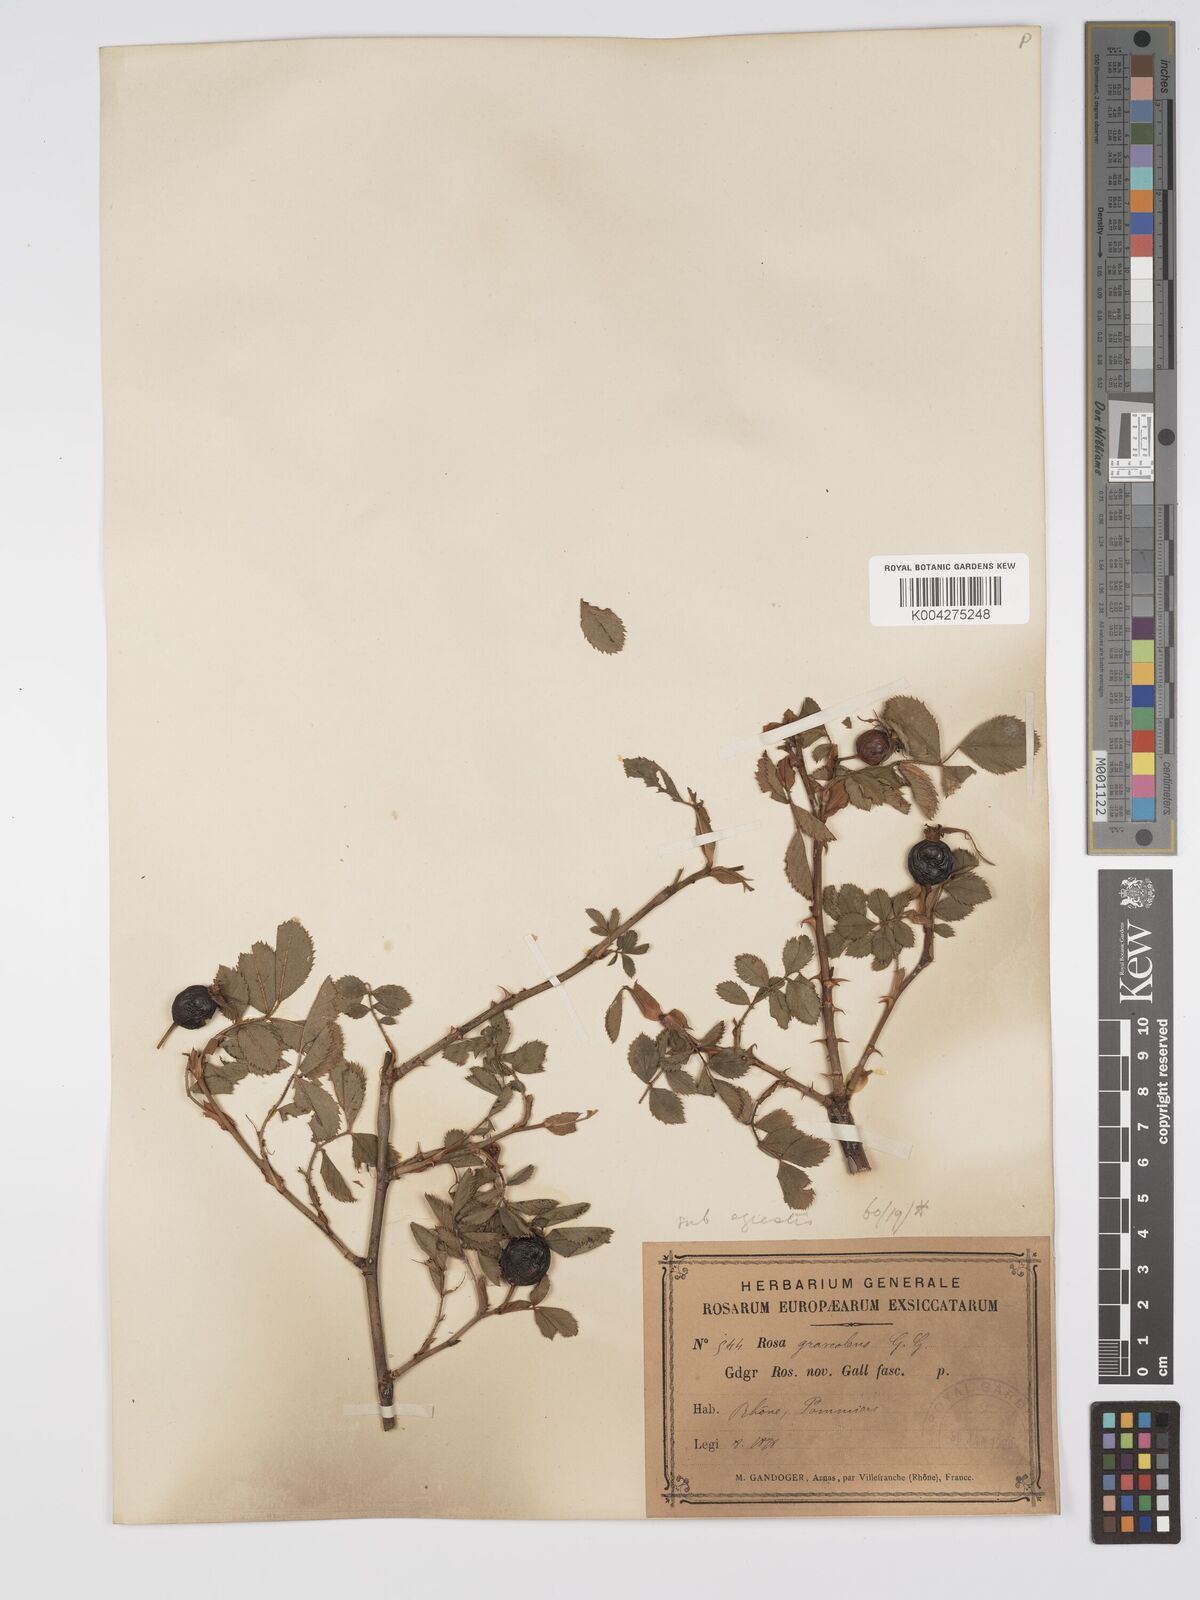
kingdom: Plantae
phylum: Tracheophyta
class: Magnoliopsida
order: Rosales
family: Rosaceae
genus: Rosa
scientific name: Rosa
